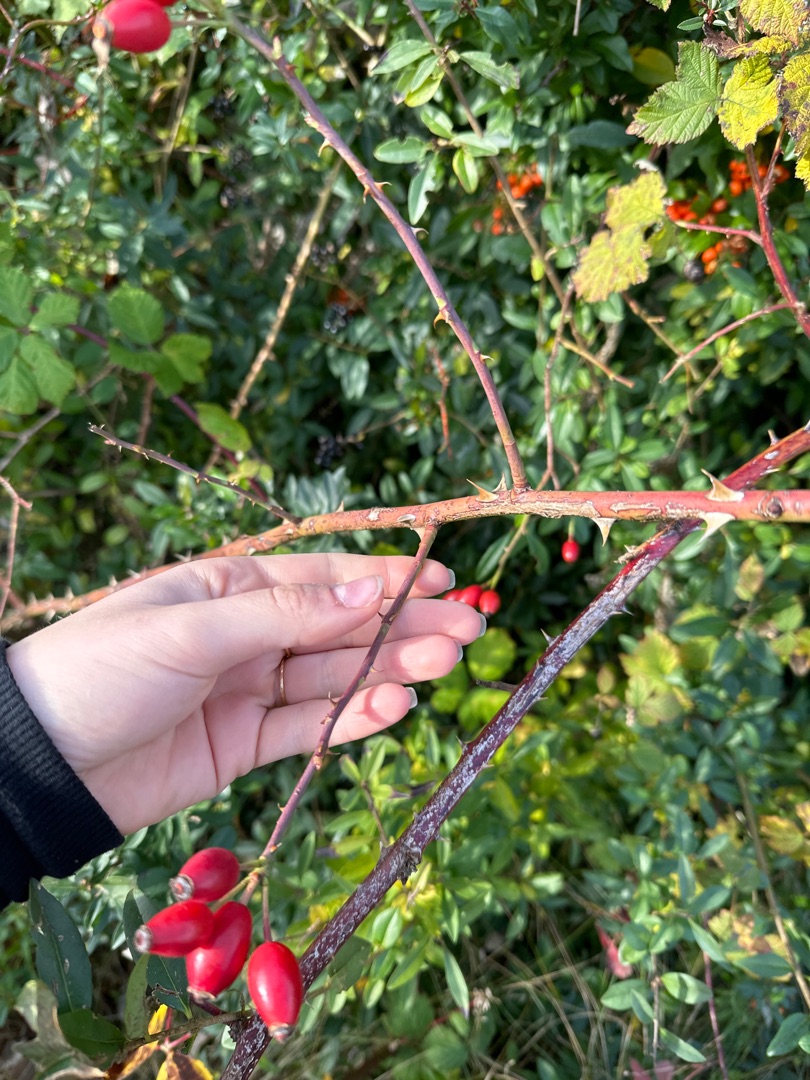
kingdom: Plantae
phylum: Tracheophyta
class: Magnoliopsida
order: Rosales
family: Rosaceae
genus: Rosa
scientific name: Rosa canina
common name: Hunde-rose
